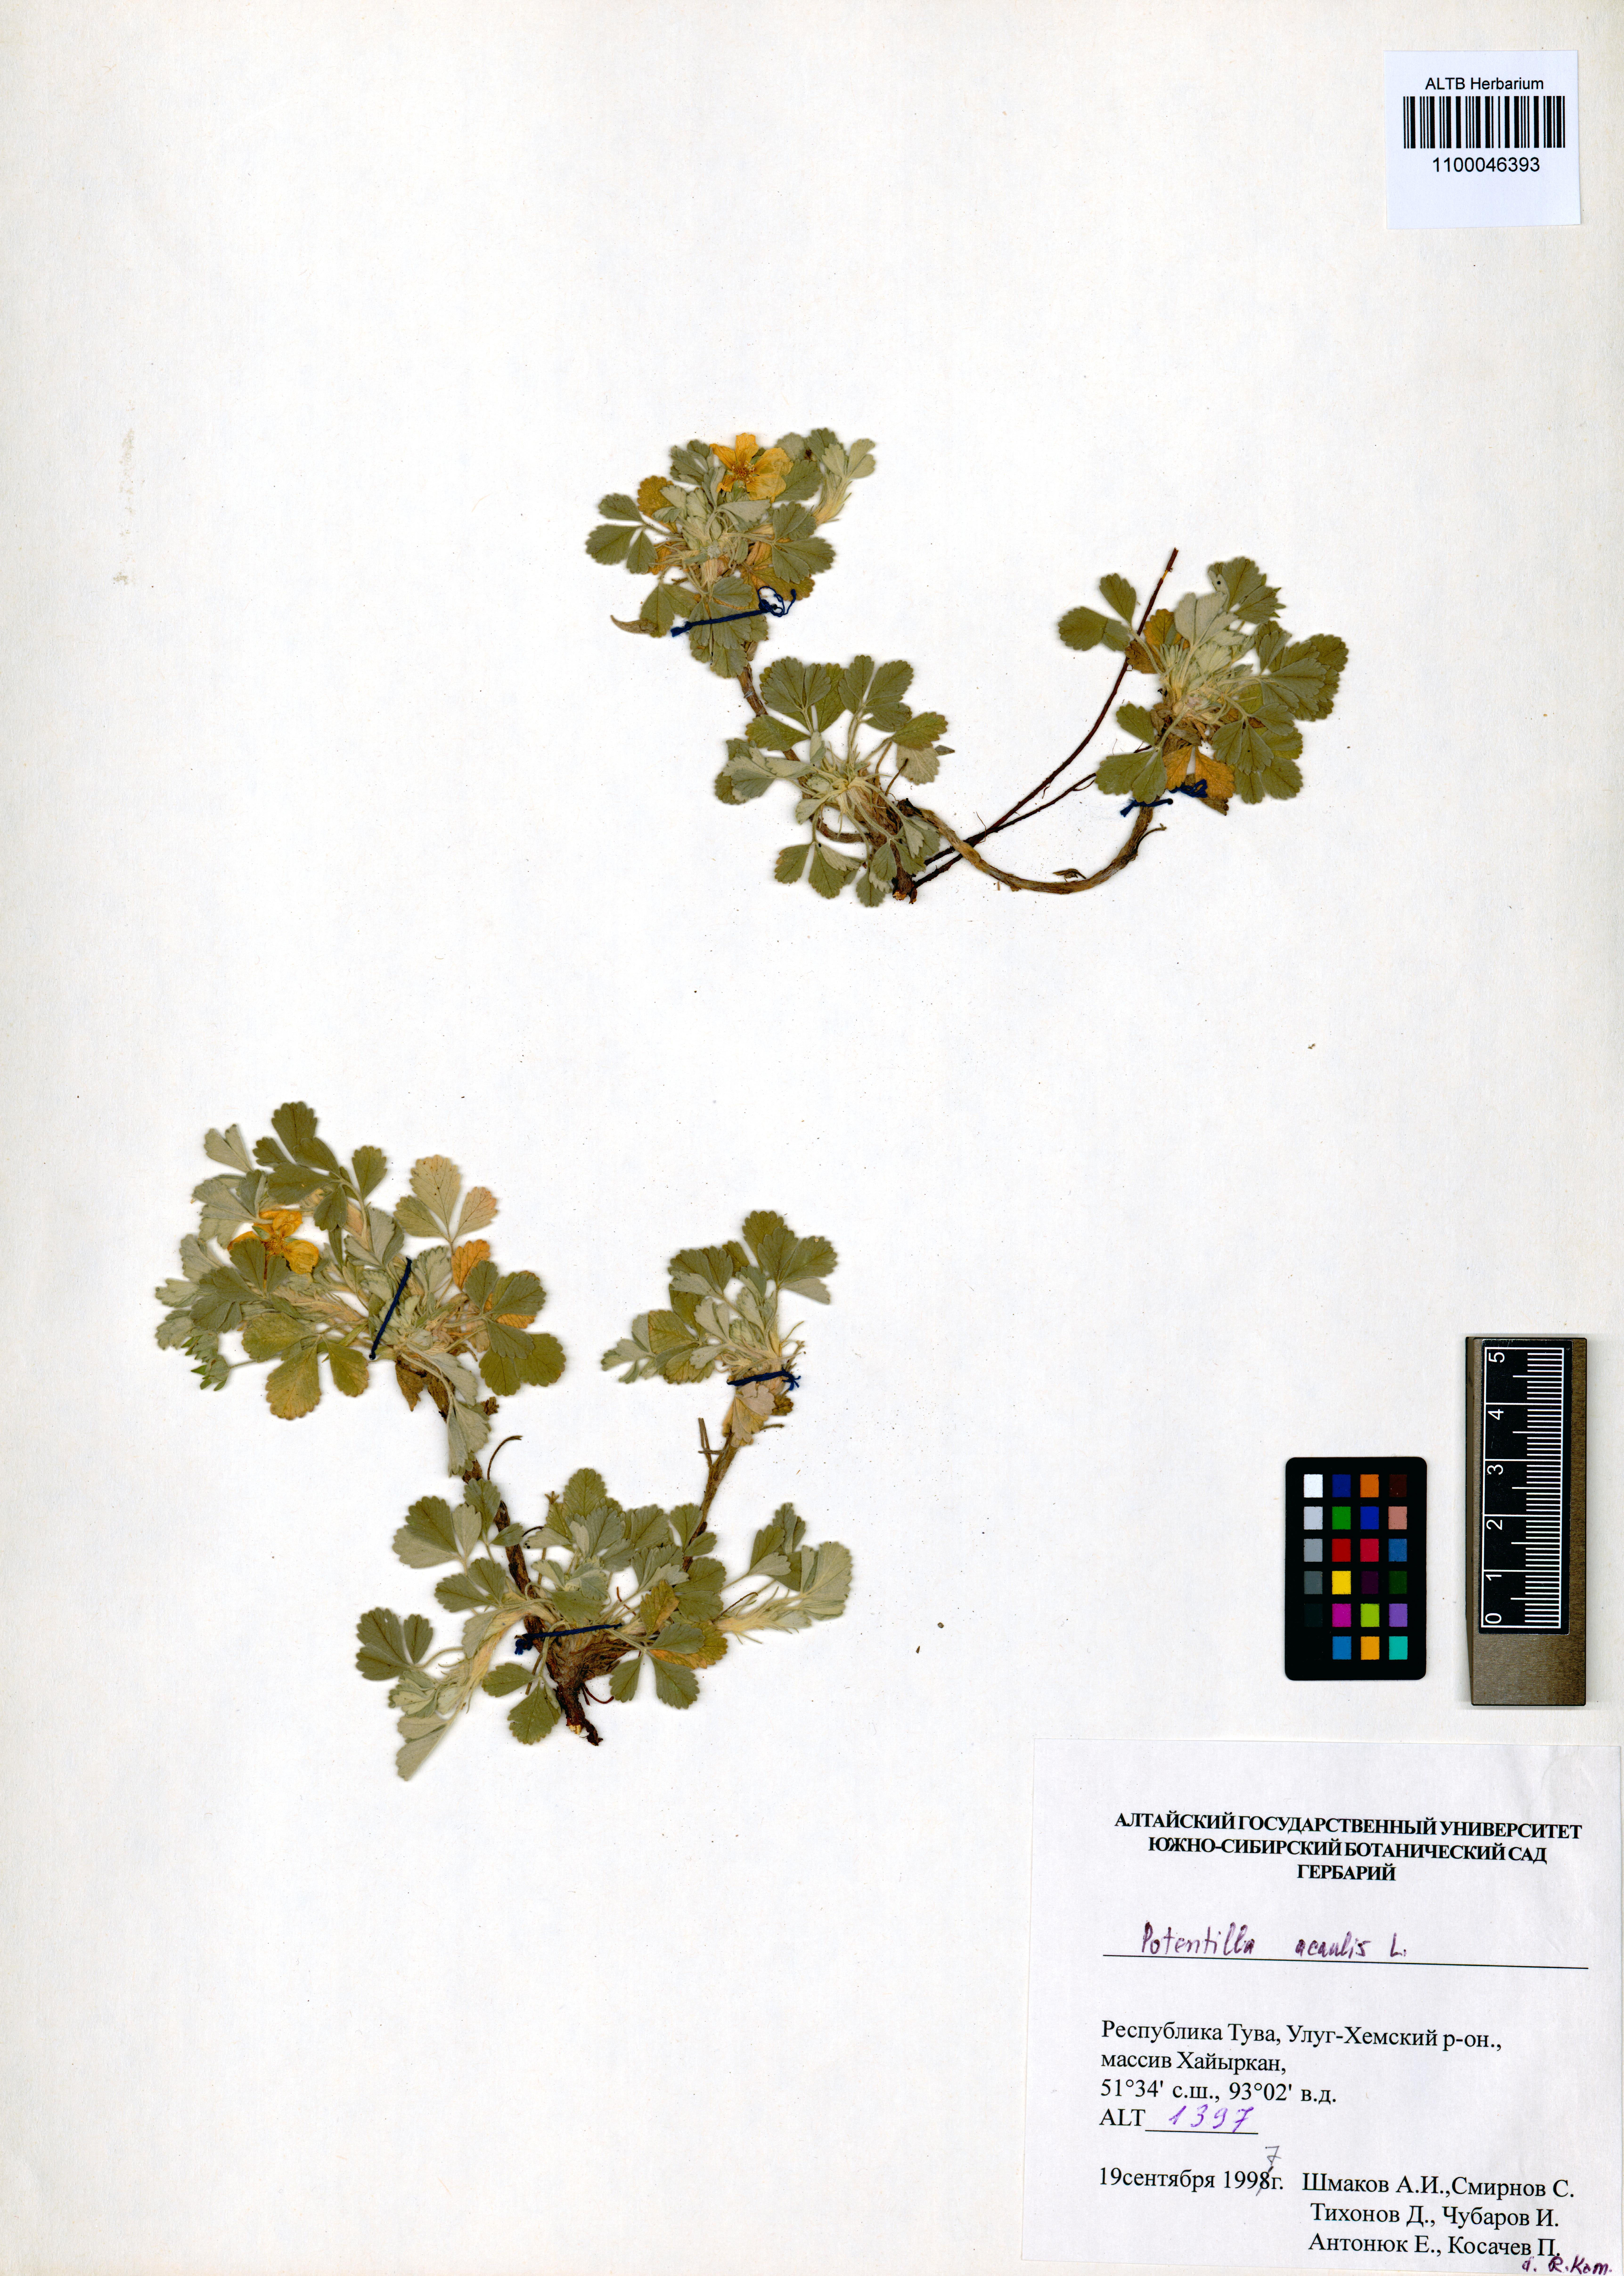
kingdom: Plantae
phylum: Tracheophyta
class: Magnoliopsida
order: Rosales
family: Rosaceae
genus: Potentilla
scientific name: Potentilla acaulis
